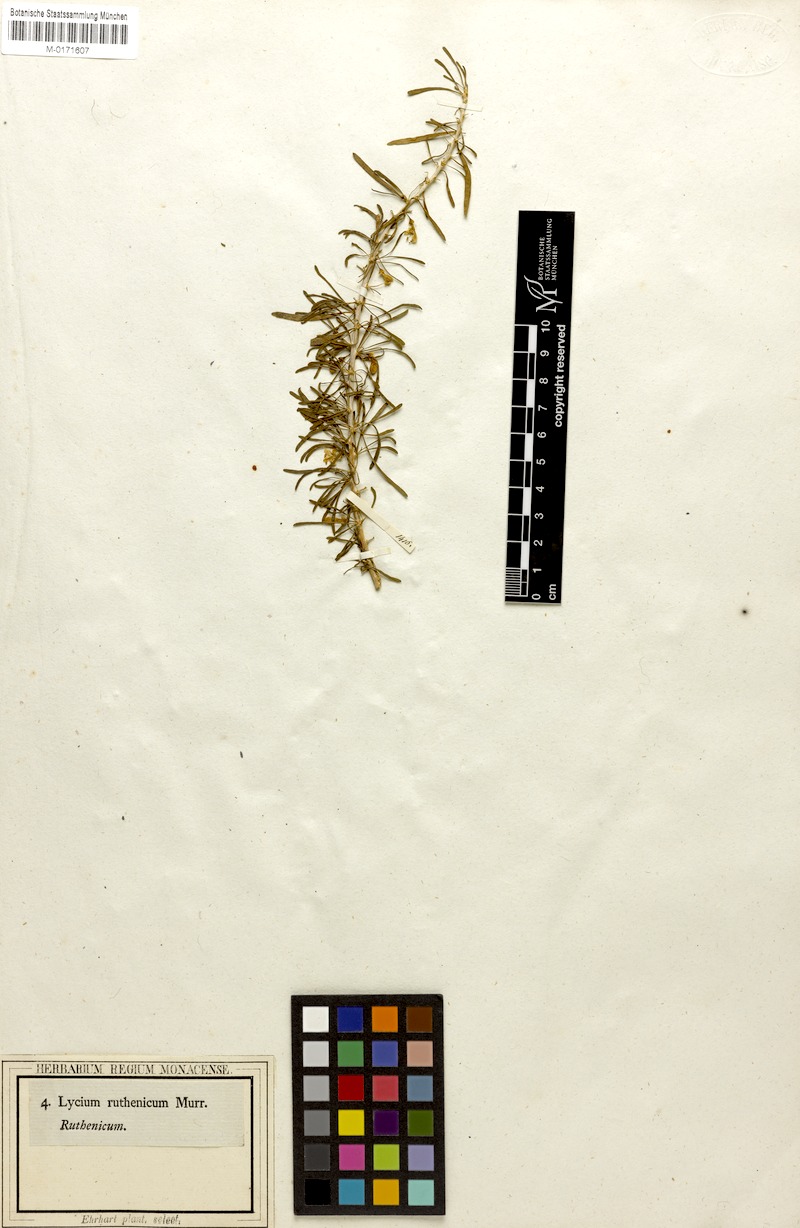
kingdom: Plantae
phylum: Tracheophyta
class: Magnoliopsida
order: Solanales
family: Solanaceae
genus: Lycium
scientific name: Lycium ruthenicum
